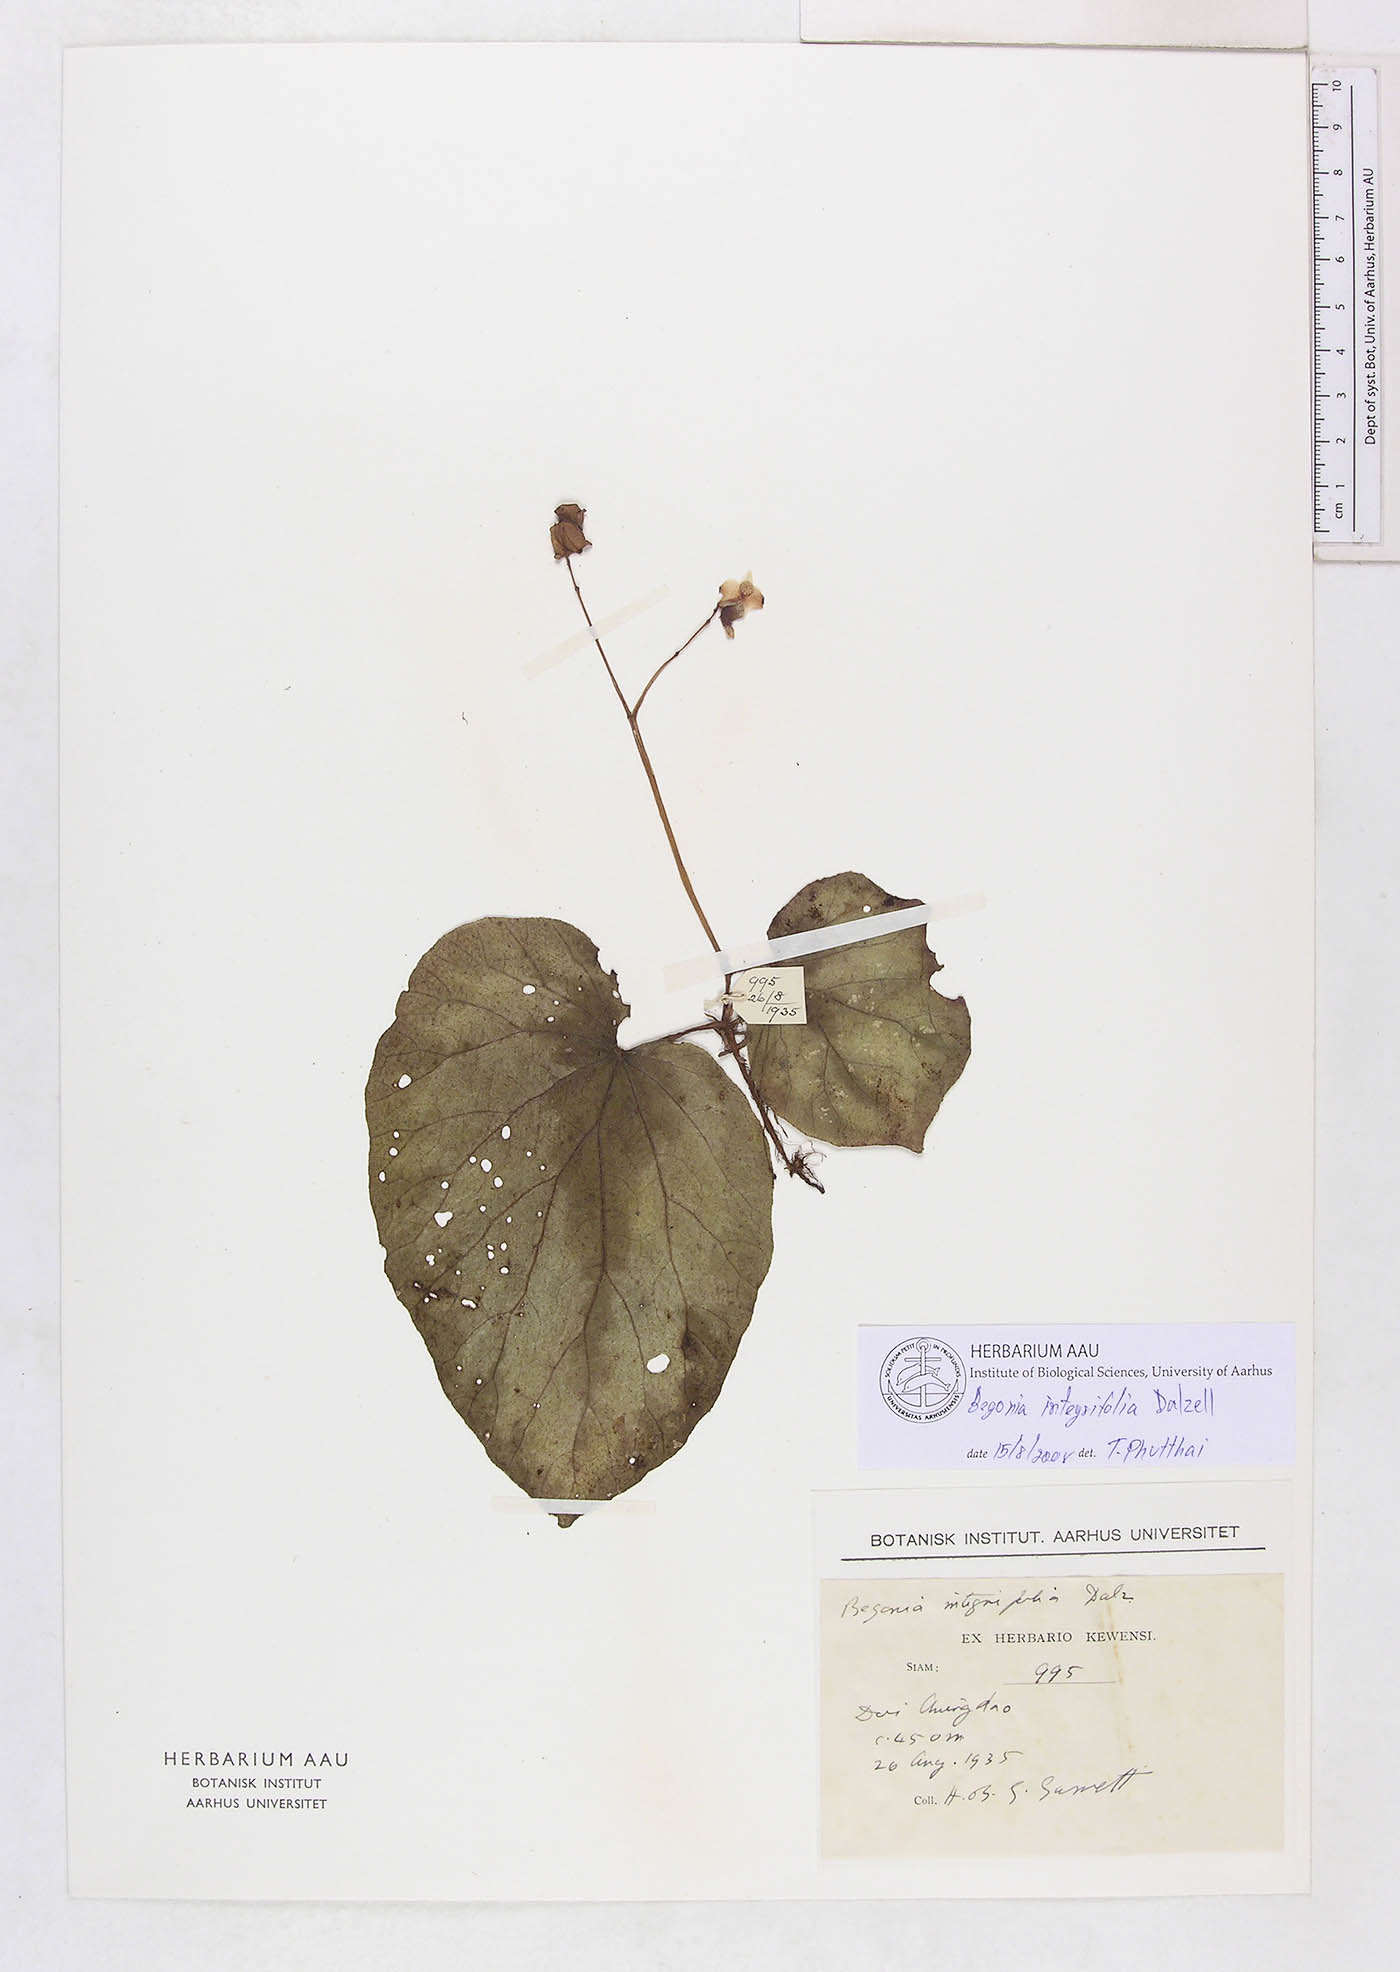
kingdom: Plantae
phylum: Tracheophyta
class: Magnoliopsida
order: Cucurbitales
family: Begoniaceae
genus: Begonia
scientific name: Begonia integrifolia
